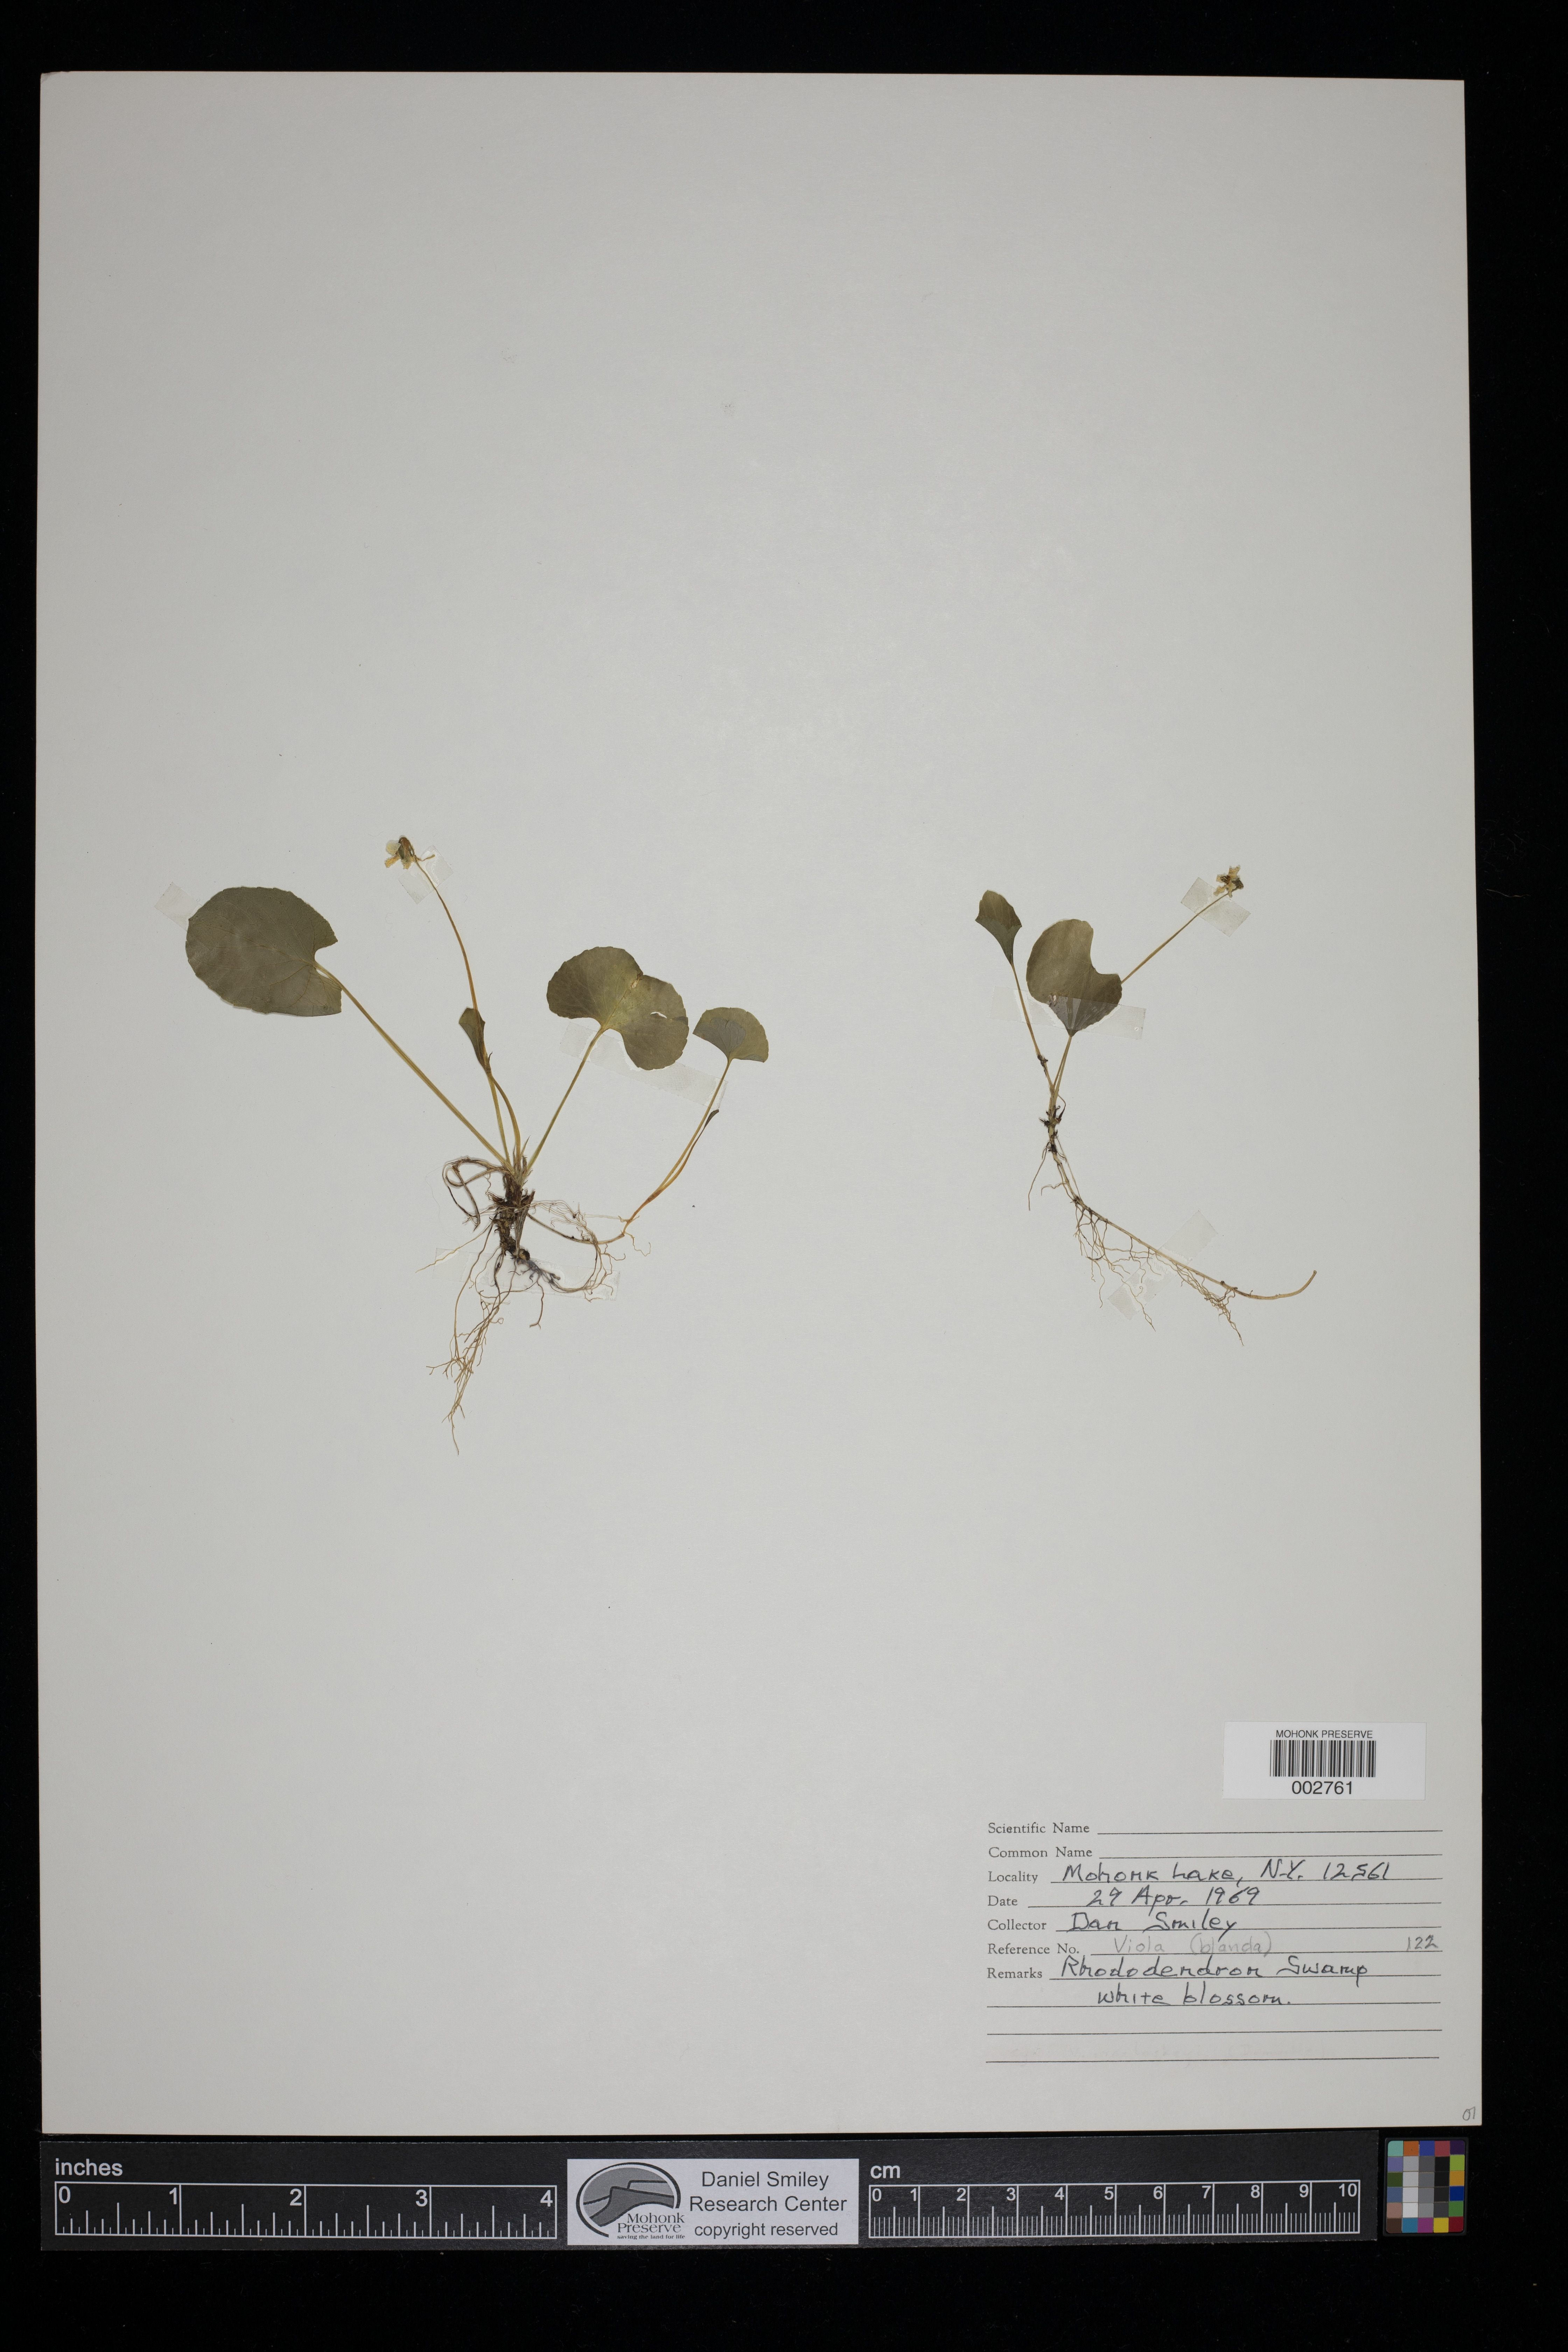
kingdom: Plantae
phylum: Tracheophyta
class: Magnoliopsida
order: Malpighiales
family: Violaceae
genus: Viola
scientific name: Viola blanda
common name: Sweet white violet
